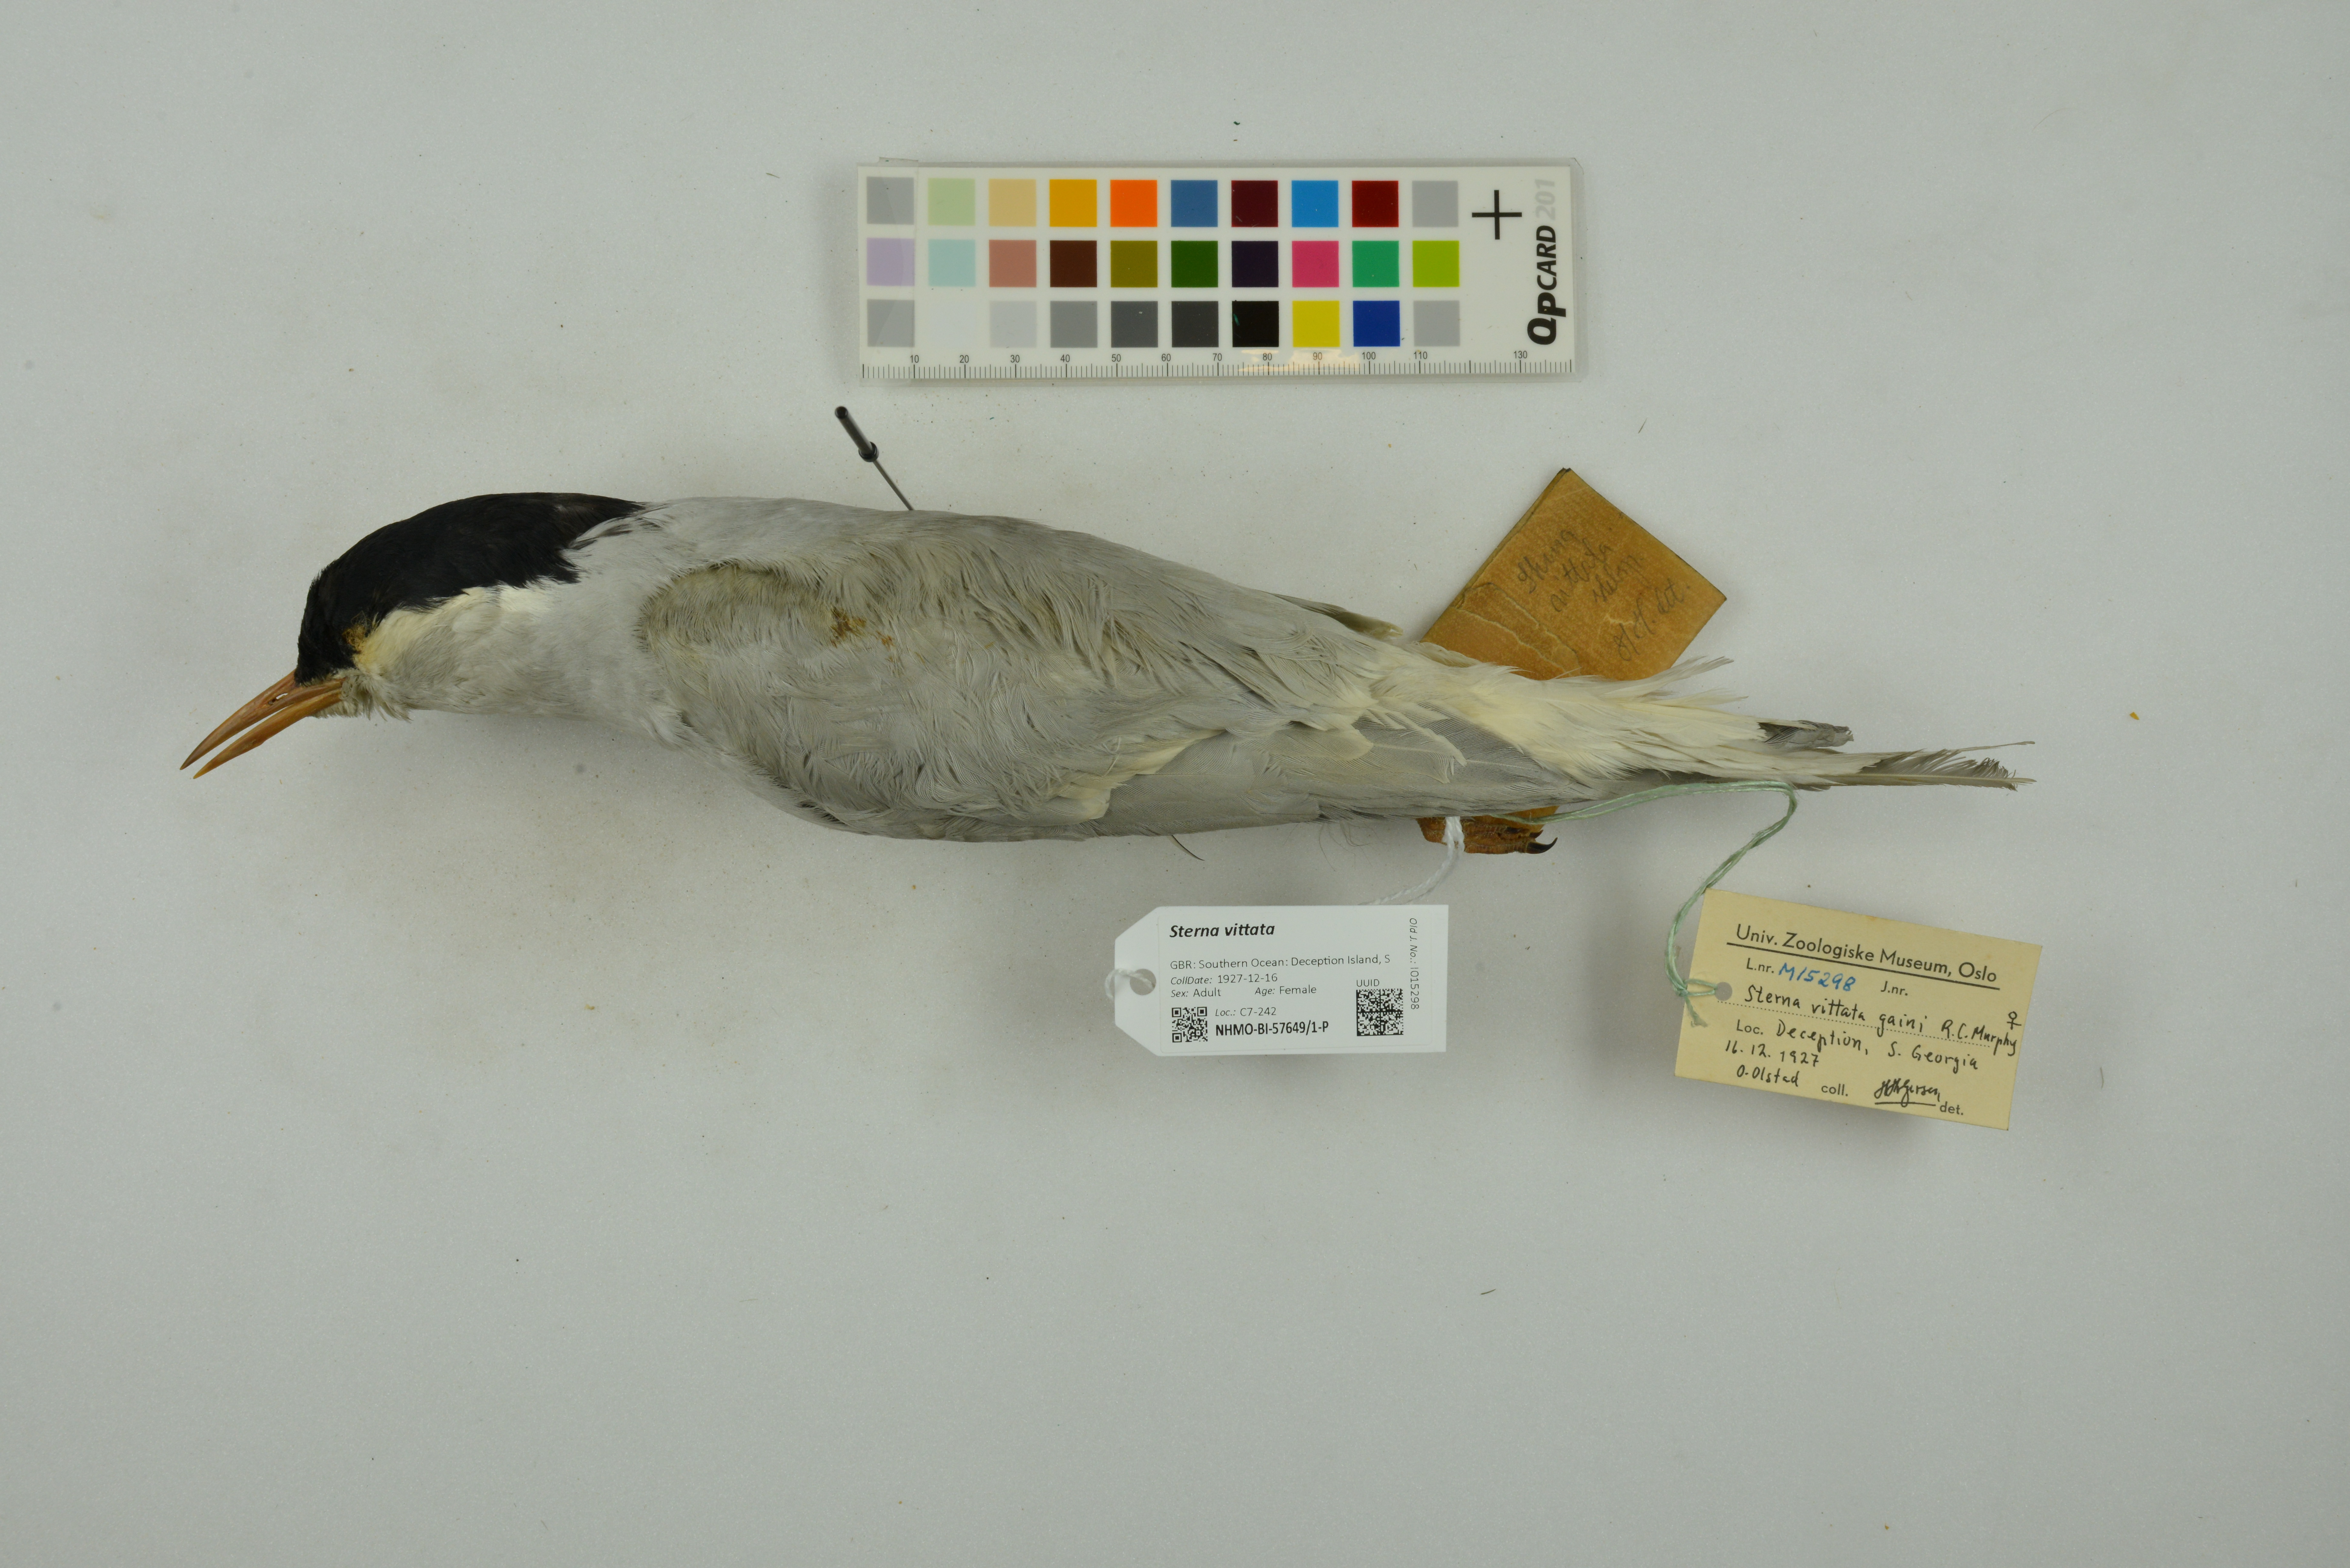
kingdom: Animalia
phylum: Chordata
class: Aves
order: Charadriiformes
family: Laridae
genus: Sterna
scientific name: Sterna vittata
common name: Antarctic tern
